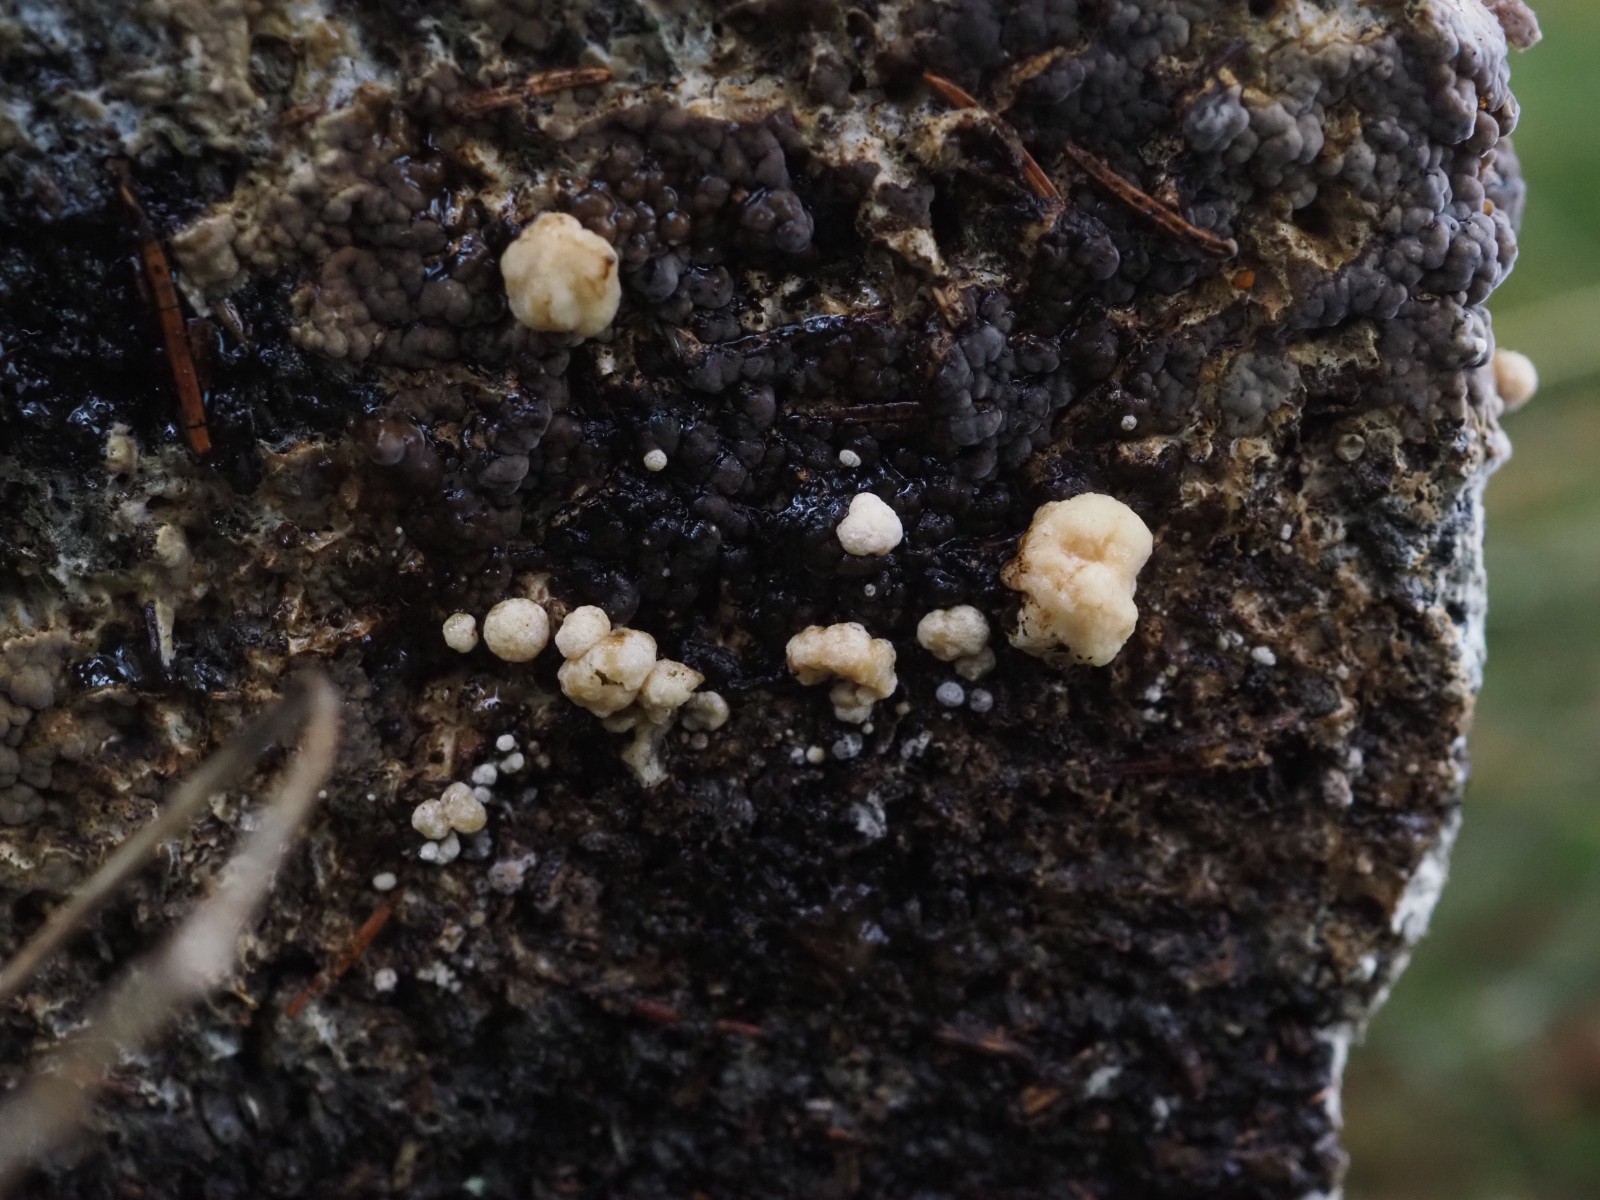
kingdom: Fungi
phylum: Ascomycota
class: Sordariomycetes
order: Xylariales
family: Hypoxylaceae
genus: Nodulisporium
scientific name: Nodulisporium cecidiogenes
